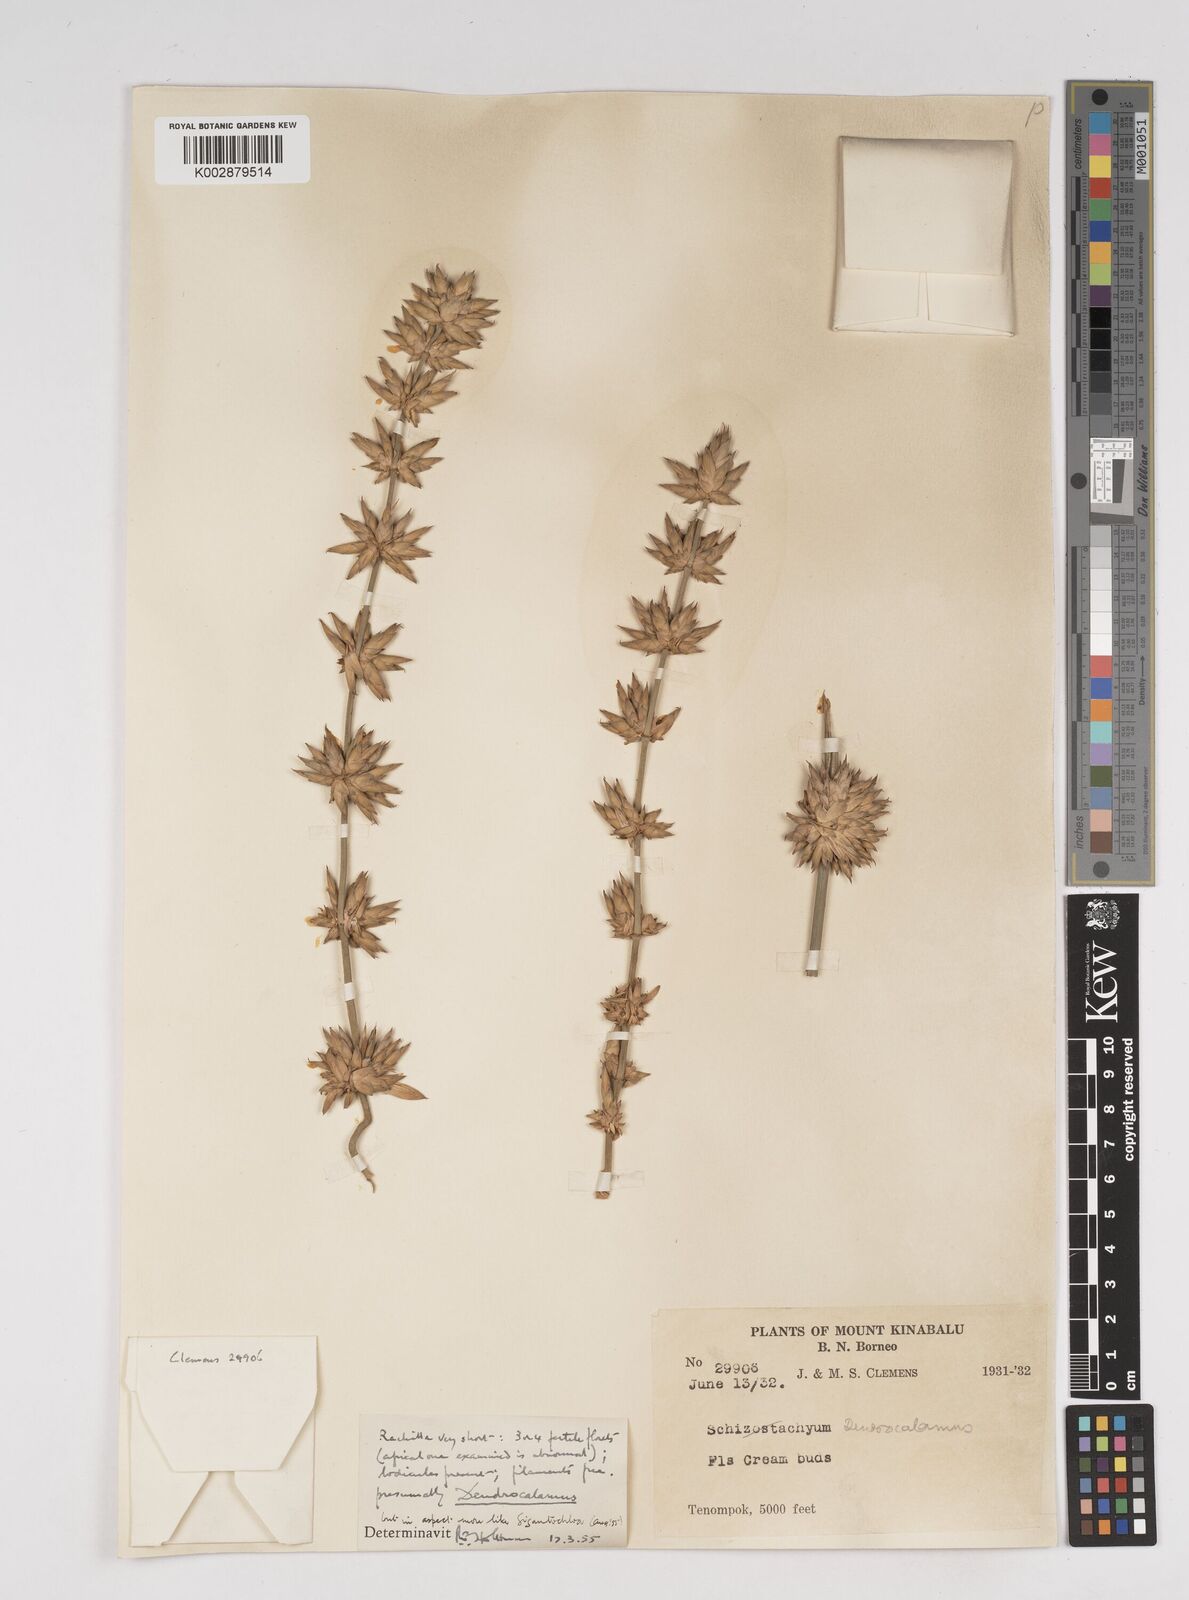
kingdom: Plantae
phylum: Tracheophyta
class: Liliopsida
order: Poales
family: Poaceae
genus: Dendrocalamus
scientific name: Dendrocalamus
